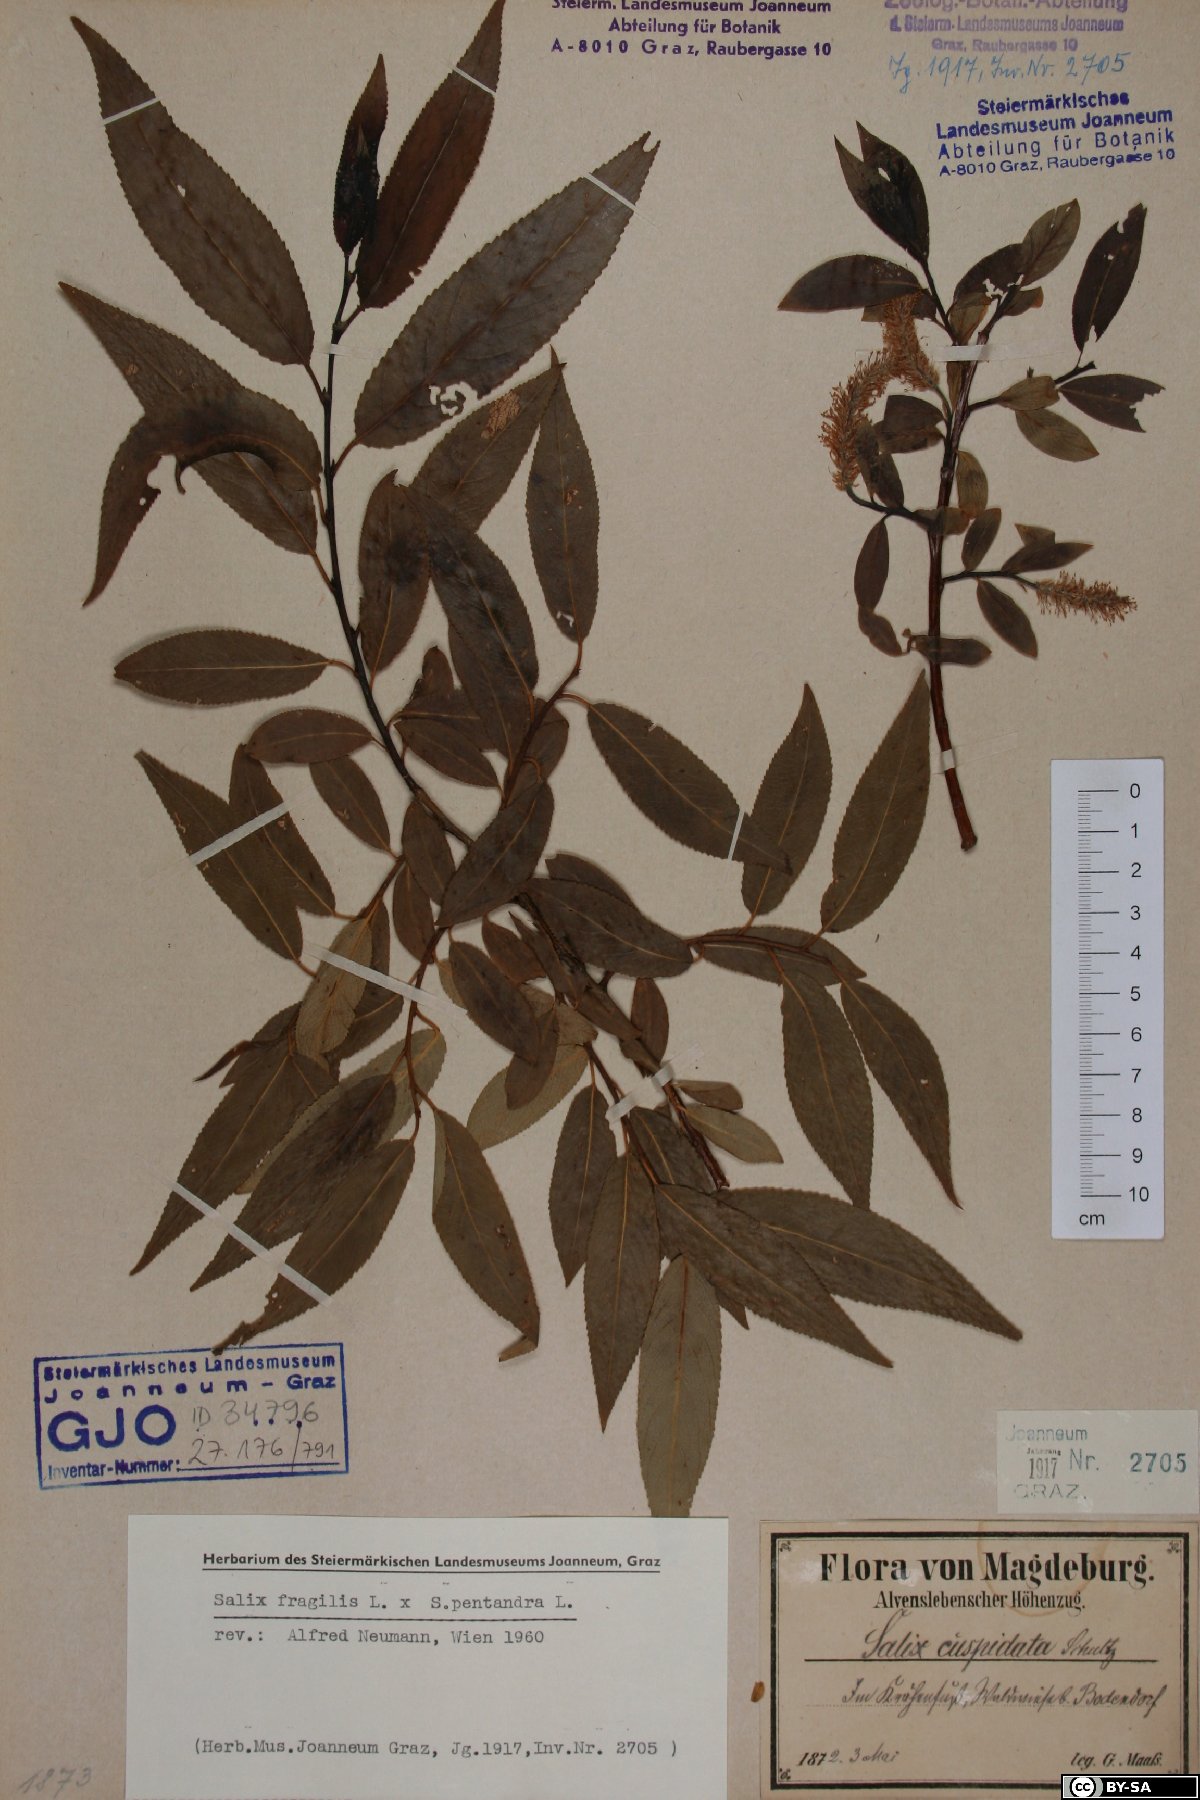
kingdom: Plantae
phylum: Tracheophyta
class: Magnoliopsida
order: Malpighiales
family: Salicaceae
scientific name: Salicaceae
